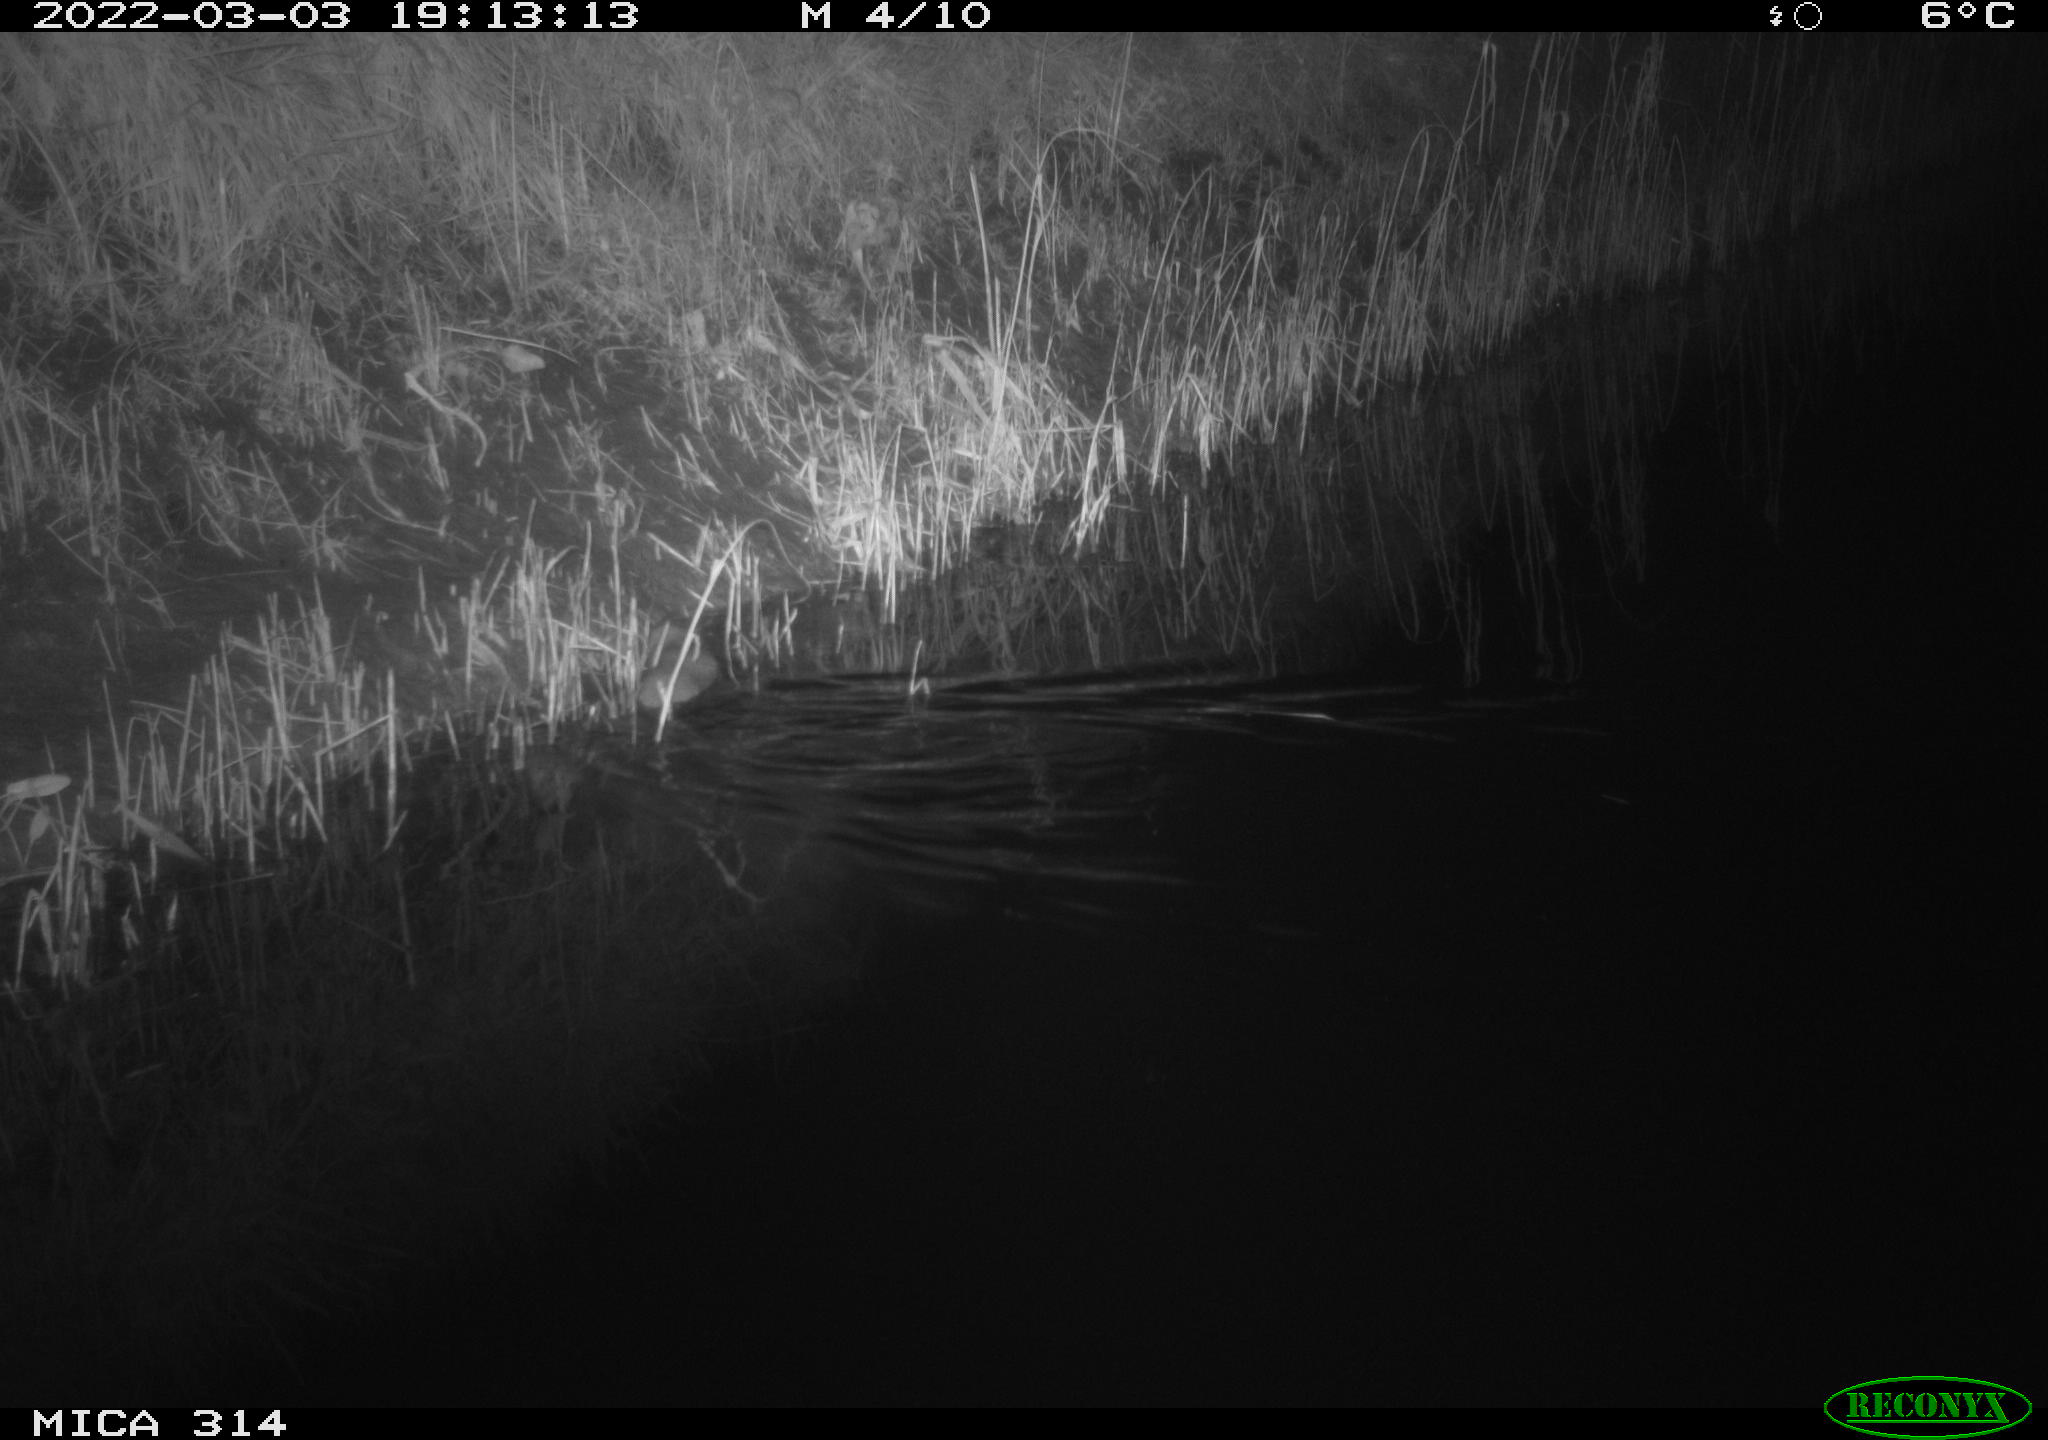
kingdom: Animalia
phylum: Chordata
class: Mammalia
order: Rodentia
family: Muridae
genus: Rattus
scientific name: Rattus norvegicus
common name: Brown rat
